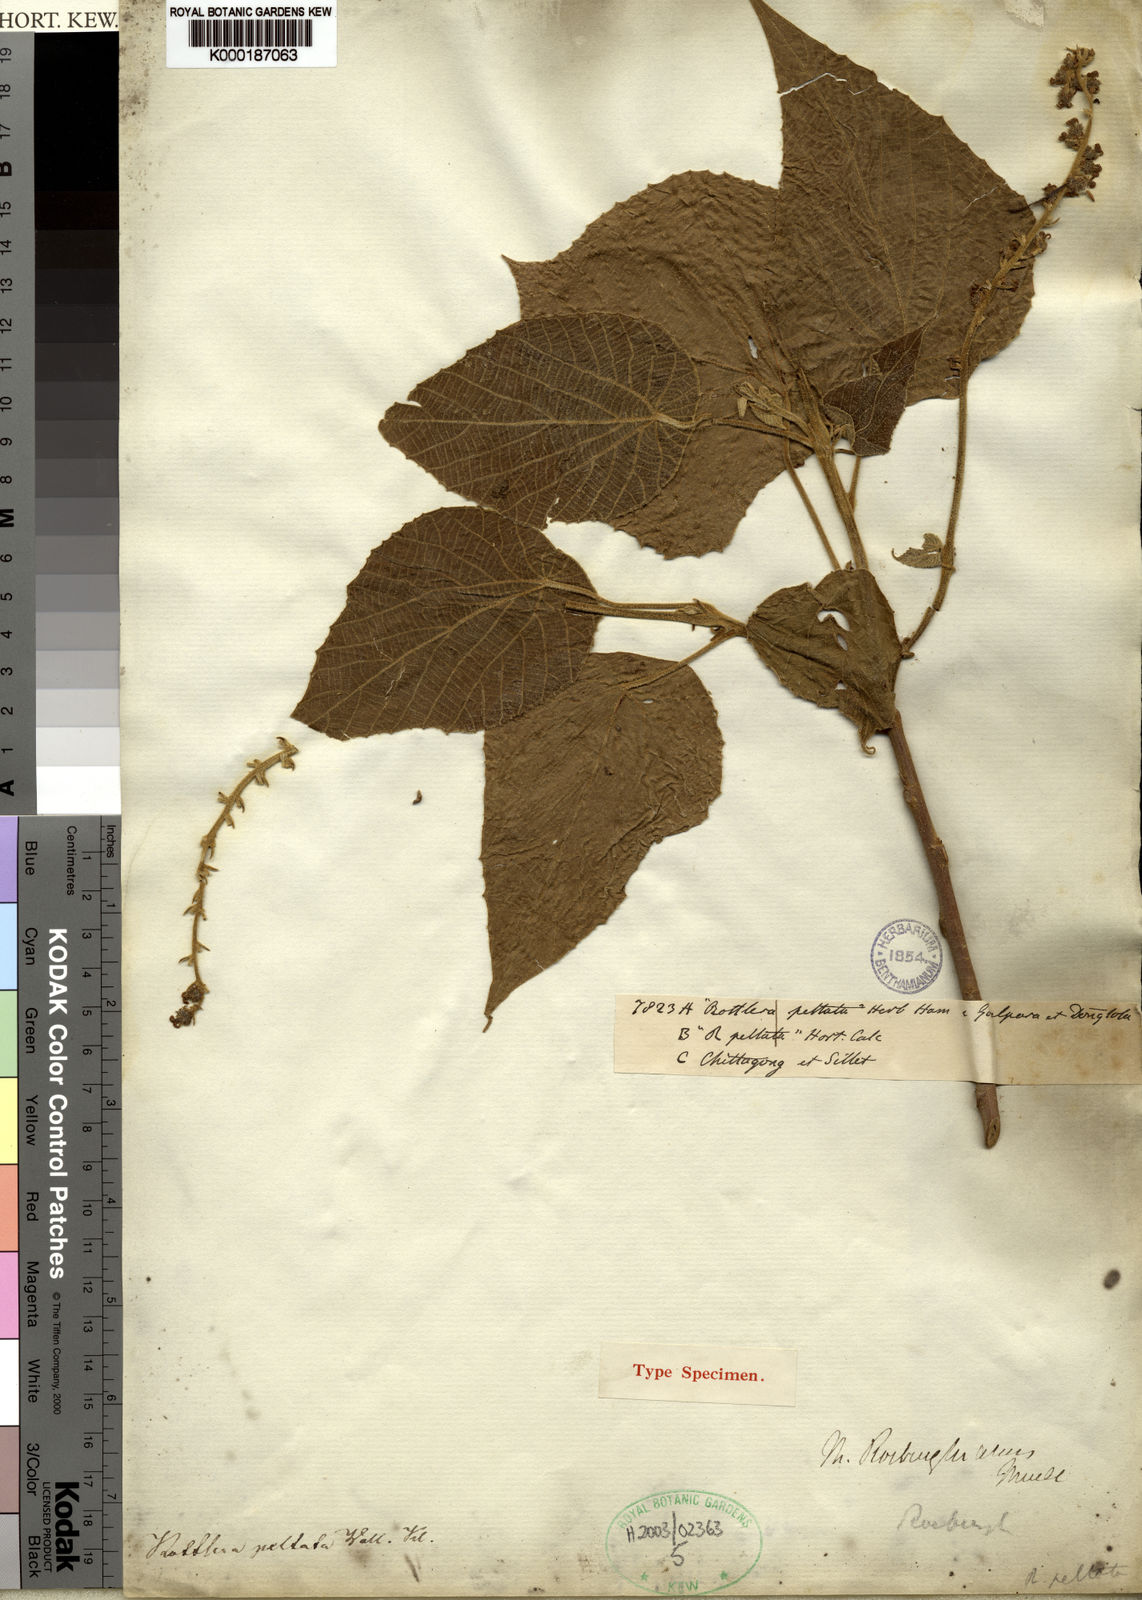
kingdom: Plantae
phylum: Tracheophyta
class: Magnoliopsida
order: Malpighiales
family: Euphorbiaceae
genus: Mallotus
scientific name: Mallotus
